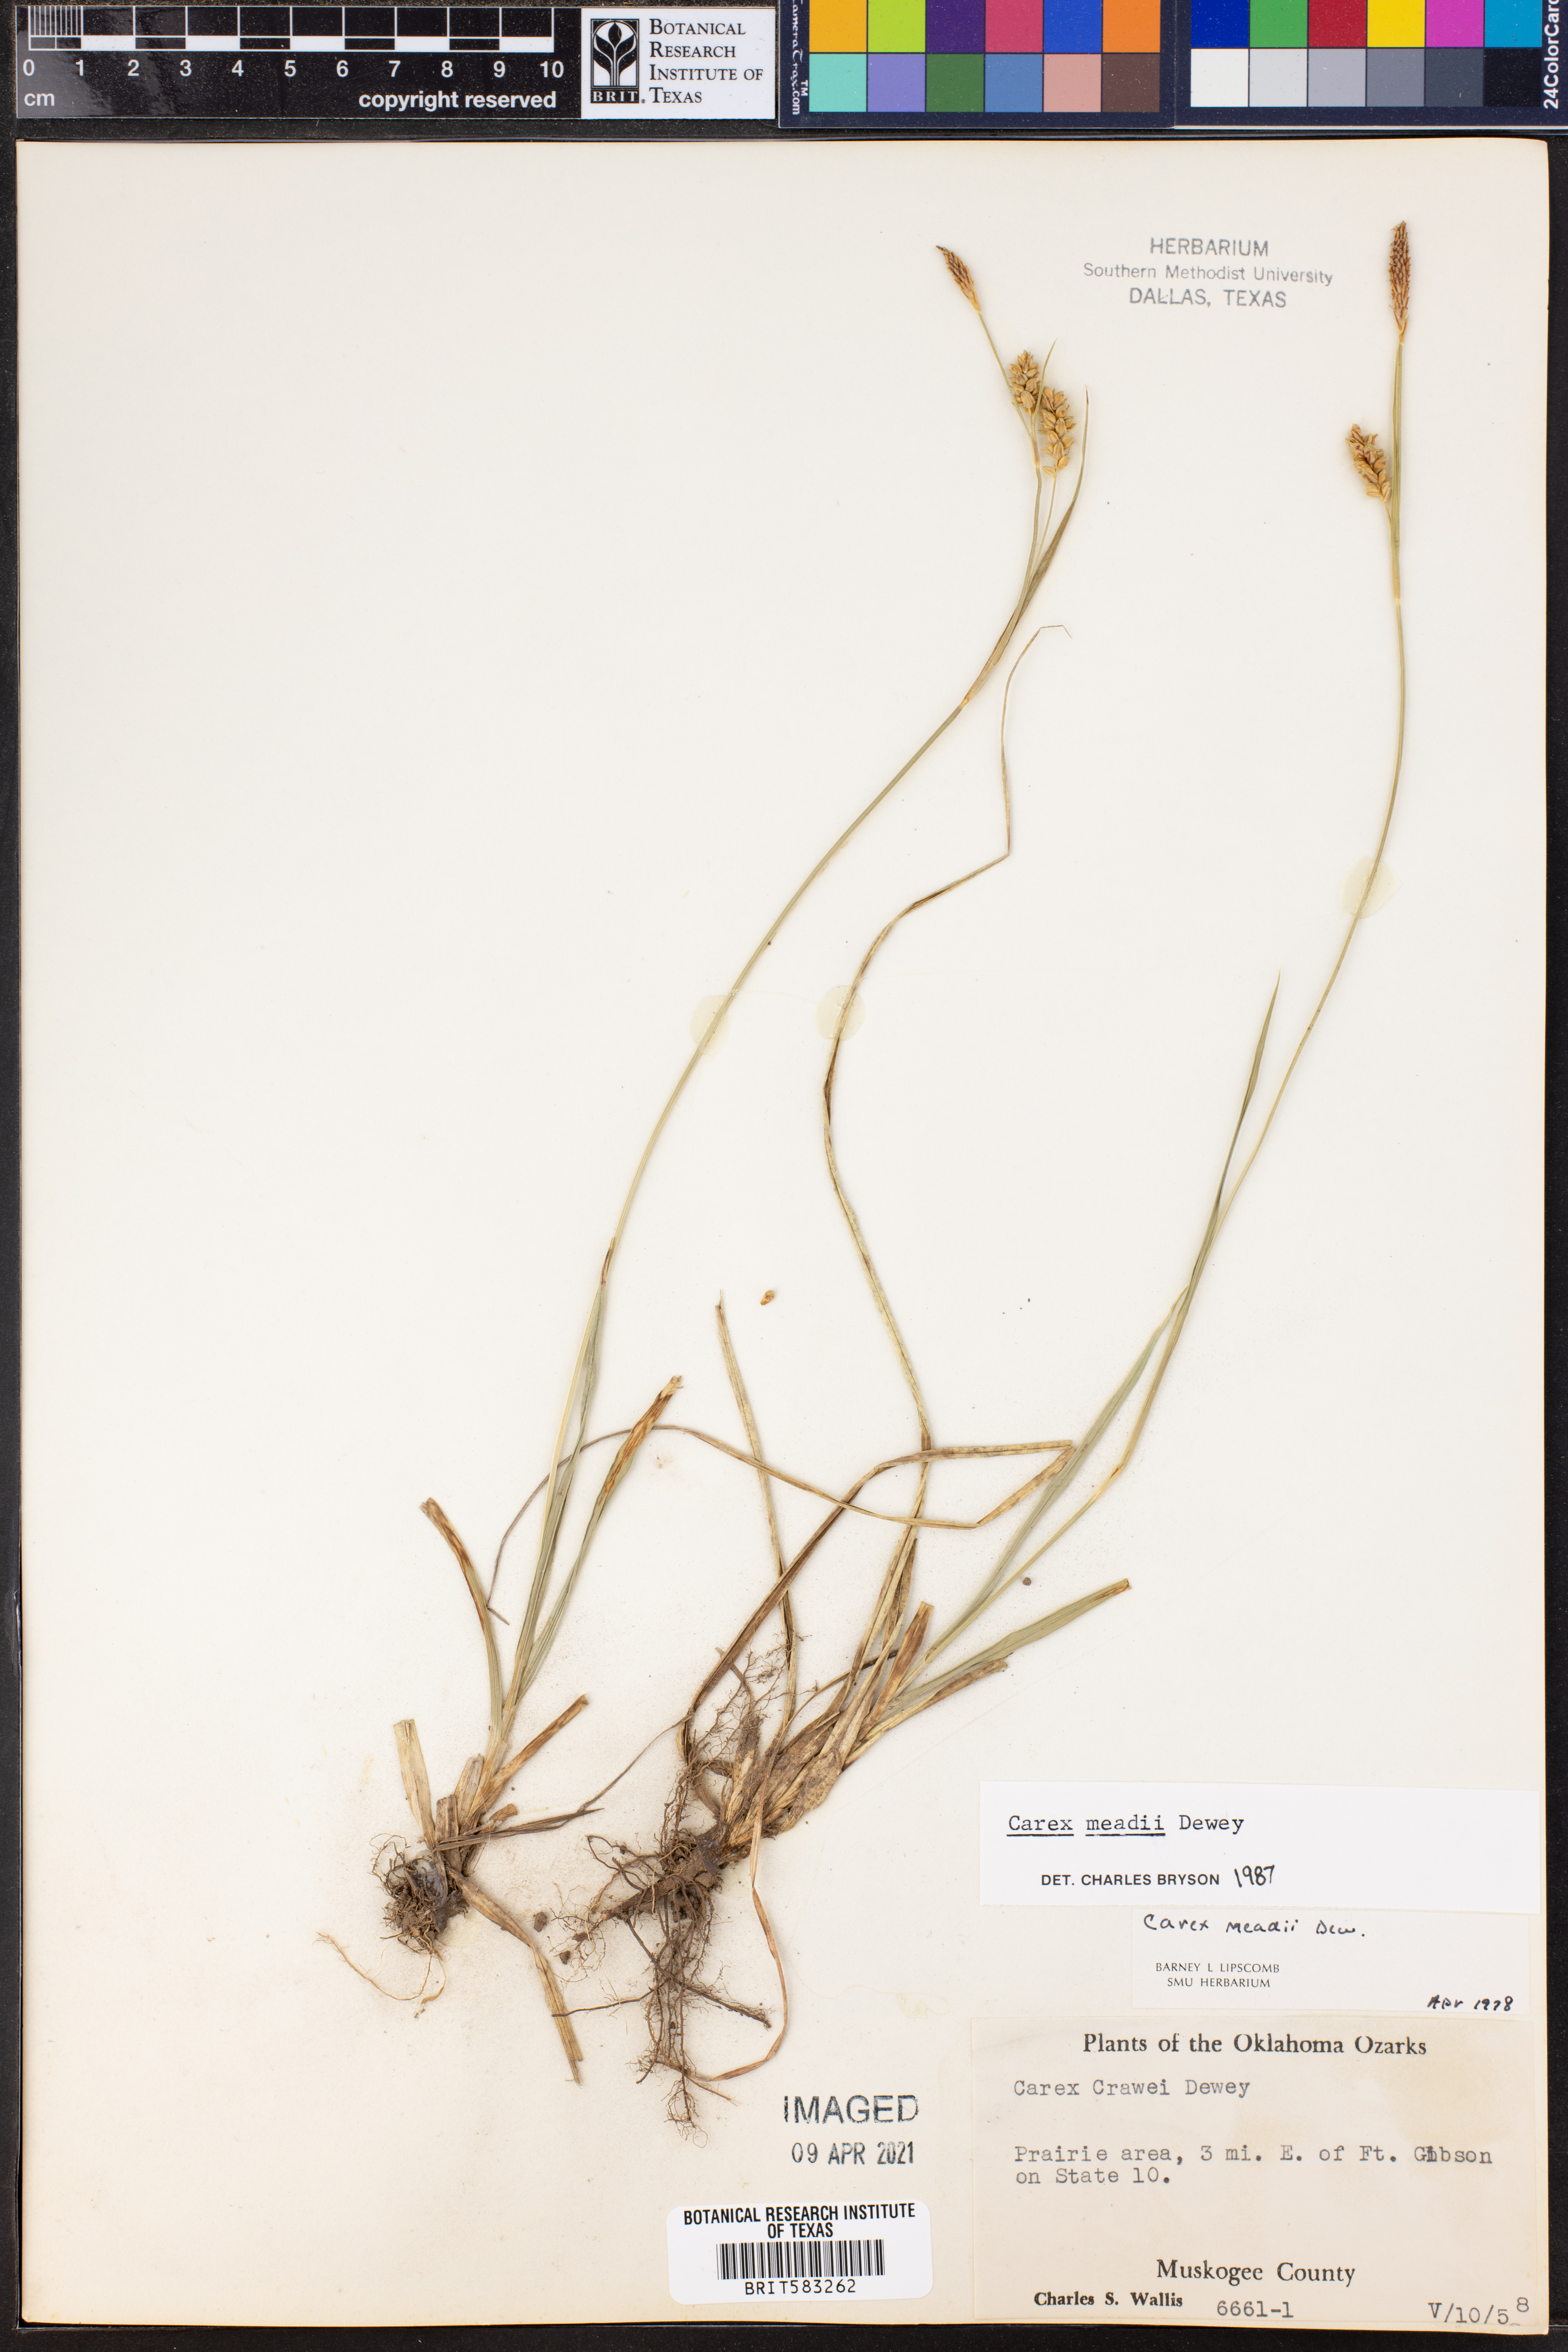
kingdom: Plantae
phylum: Tracheophyta
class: Liliopsida
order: Poales
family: Cyperaceae
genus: Carex
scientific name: Carex meadii
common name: Mead's sedge
